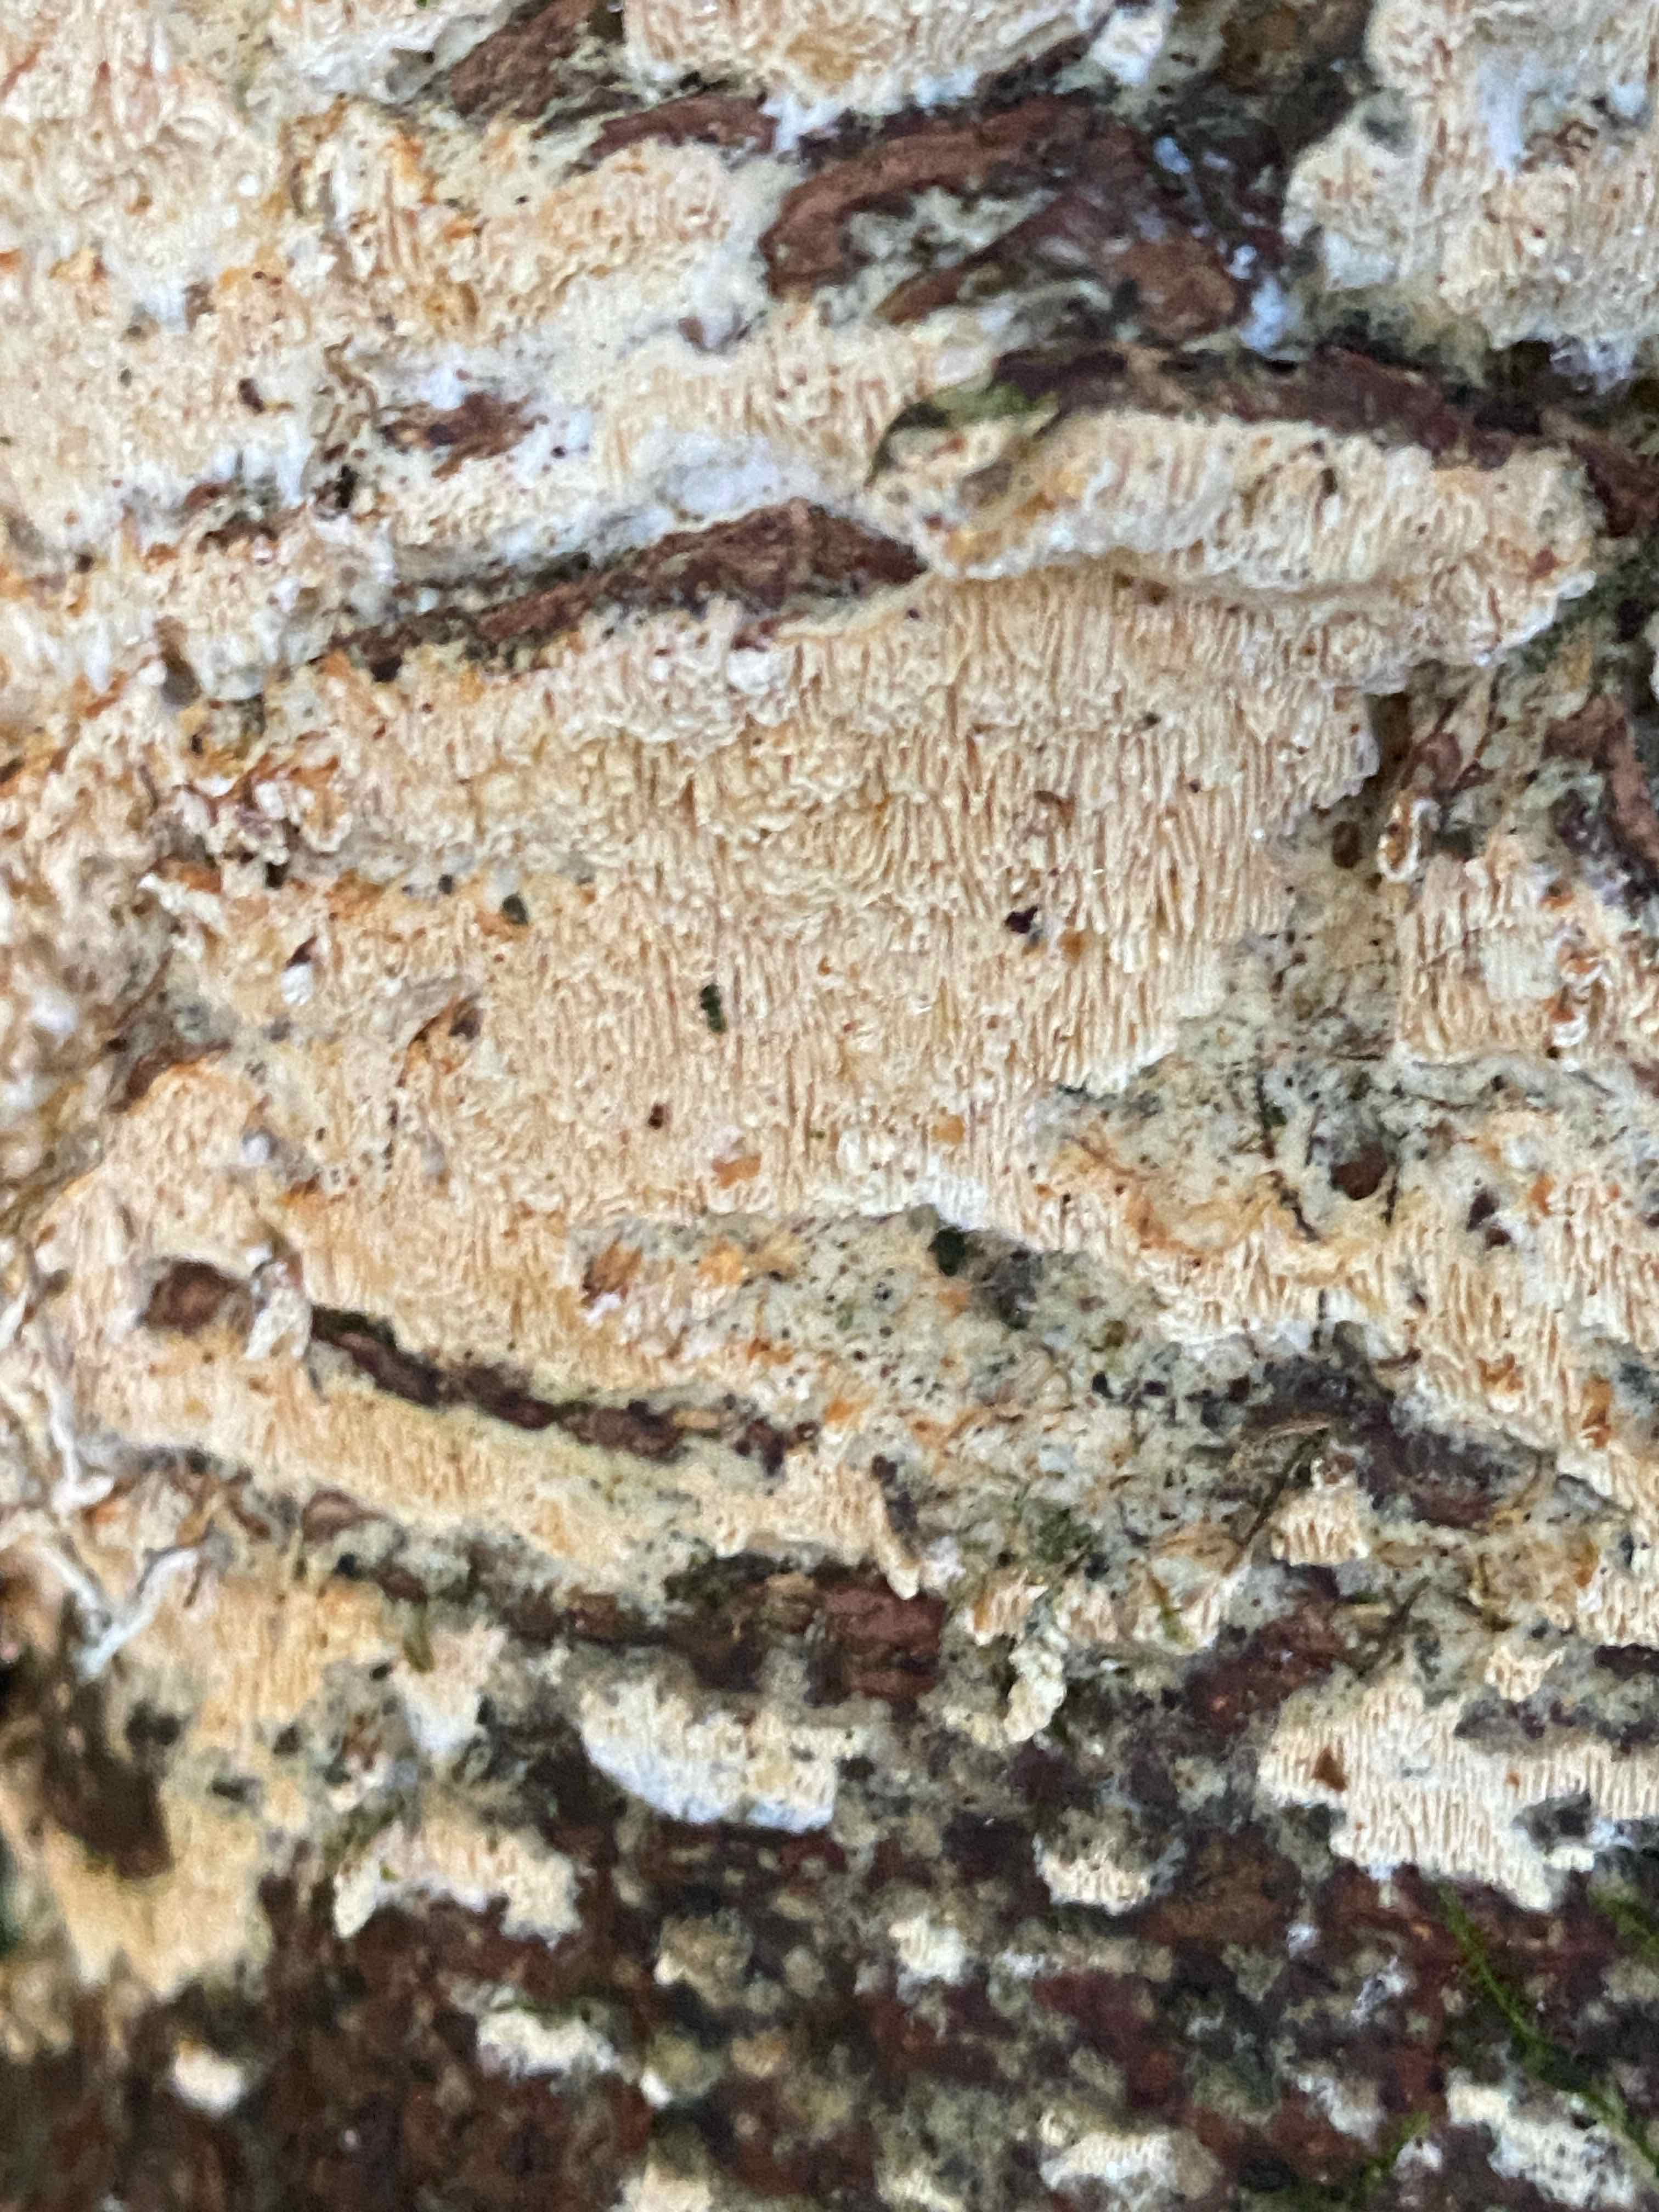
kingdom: Fungi
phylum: Basidiomycota
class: Agaricomycetes
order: Hymenochaetales
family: Schizoporaceae
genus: Xylodon
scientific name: Xylodon subtropicus
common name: labyrint-tandsvamp
